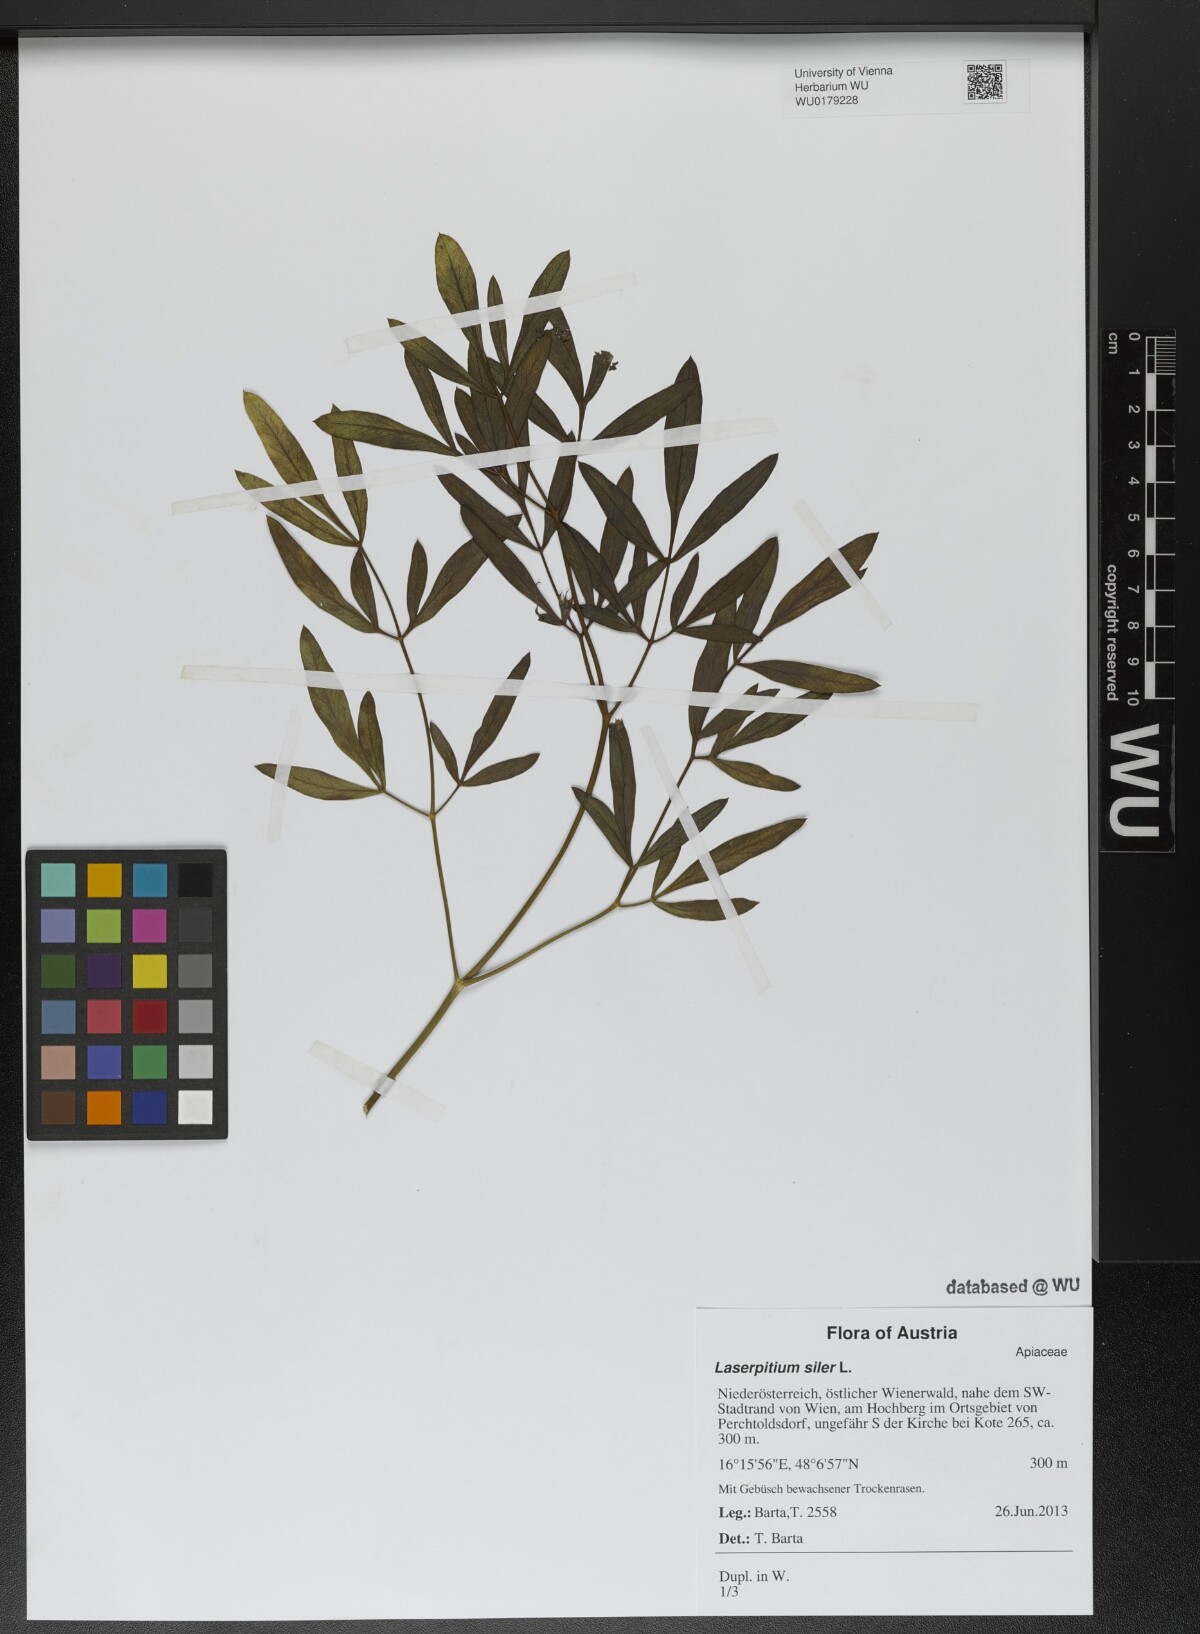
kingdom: Plantae
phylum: Tracheophyta
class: Magnoliopsida
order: Apiales
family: Apiaceae
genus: Siler
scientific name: Siler montanum
